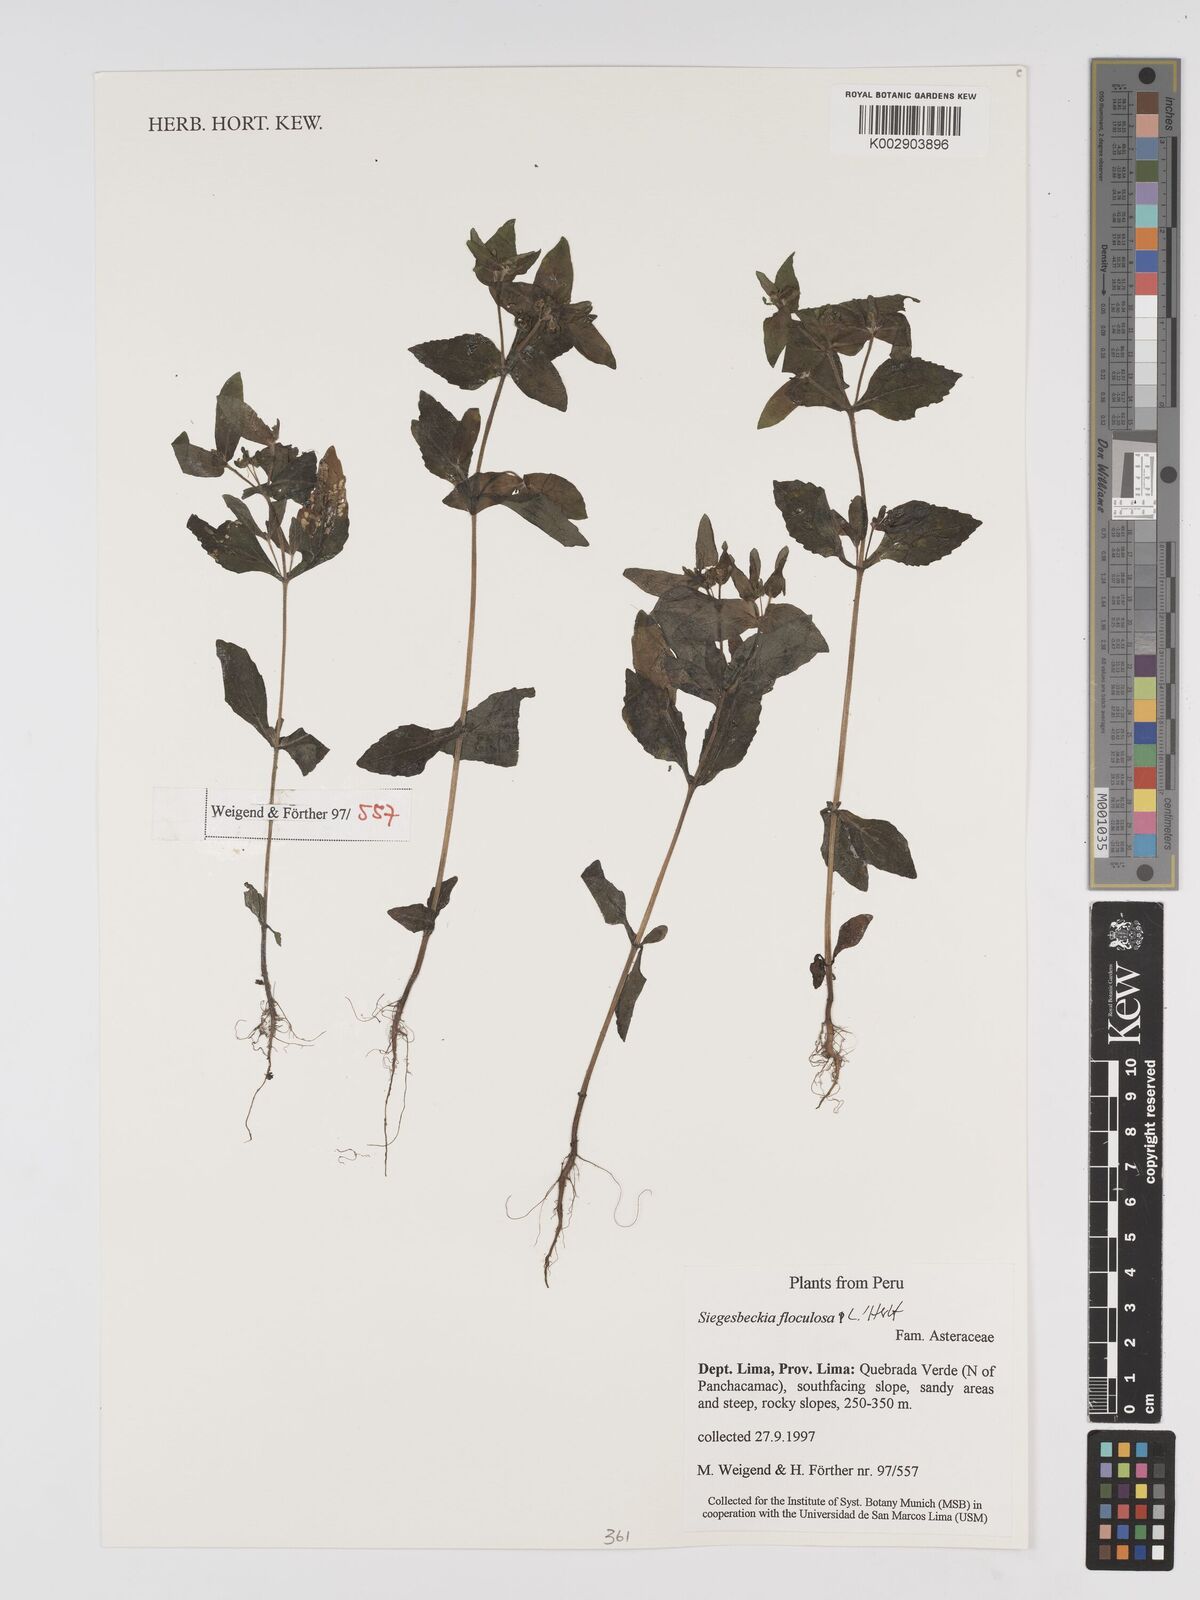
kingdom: Plantae
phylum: Tracheophyta
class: Magnoliopsida
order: Asterales
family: Asteraceae
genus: Sigesbeckia
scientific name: Sigesbeckia agrestis
